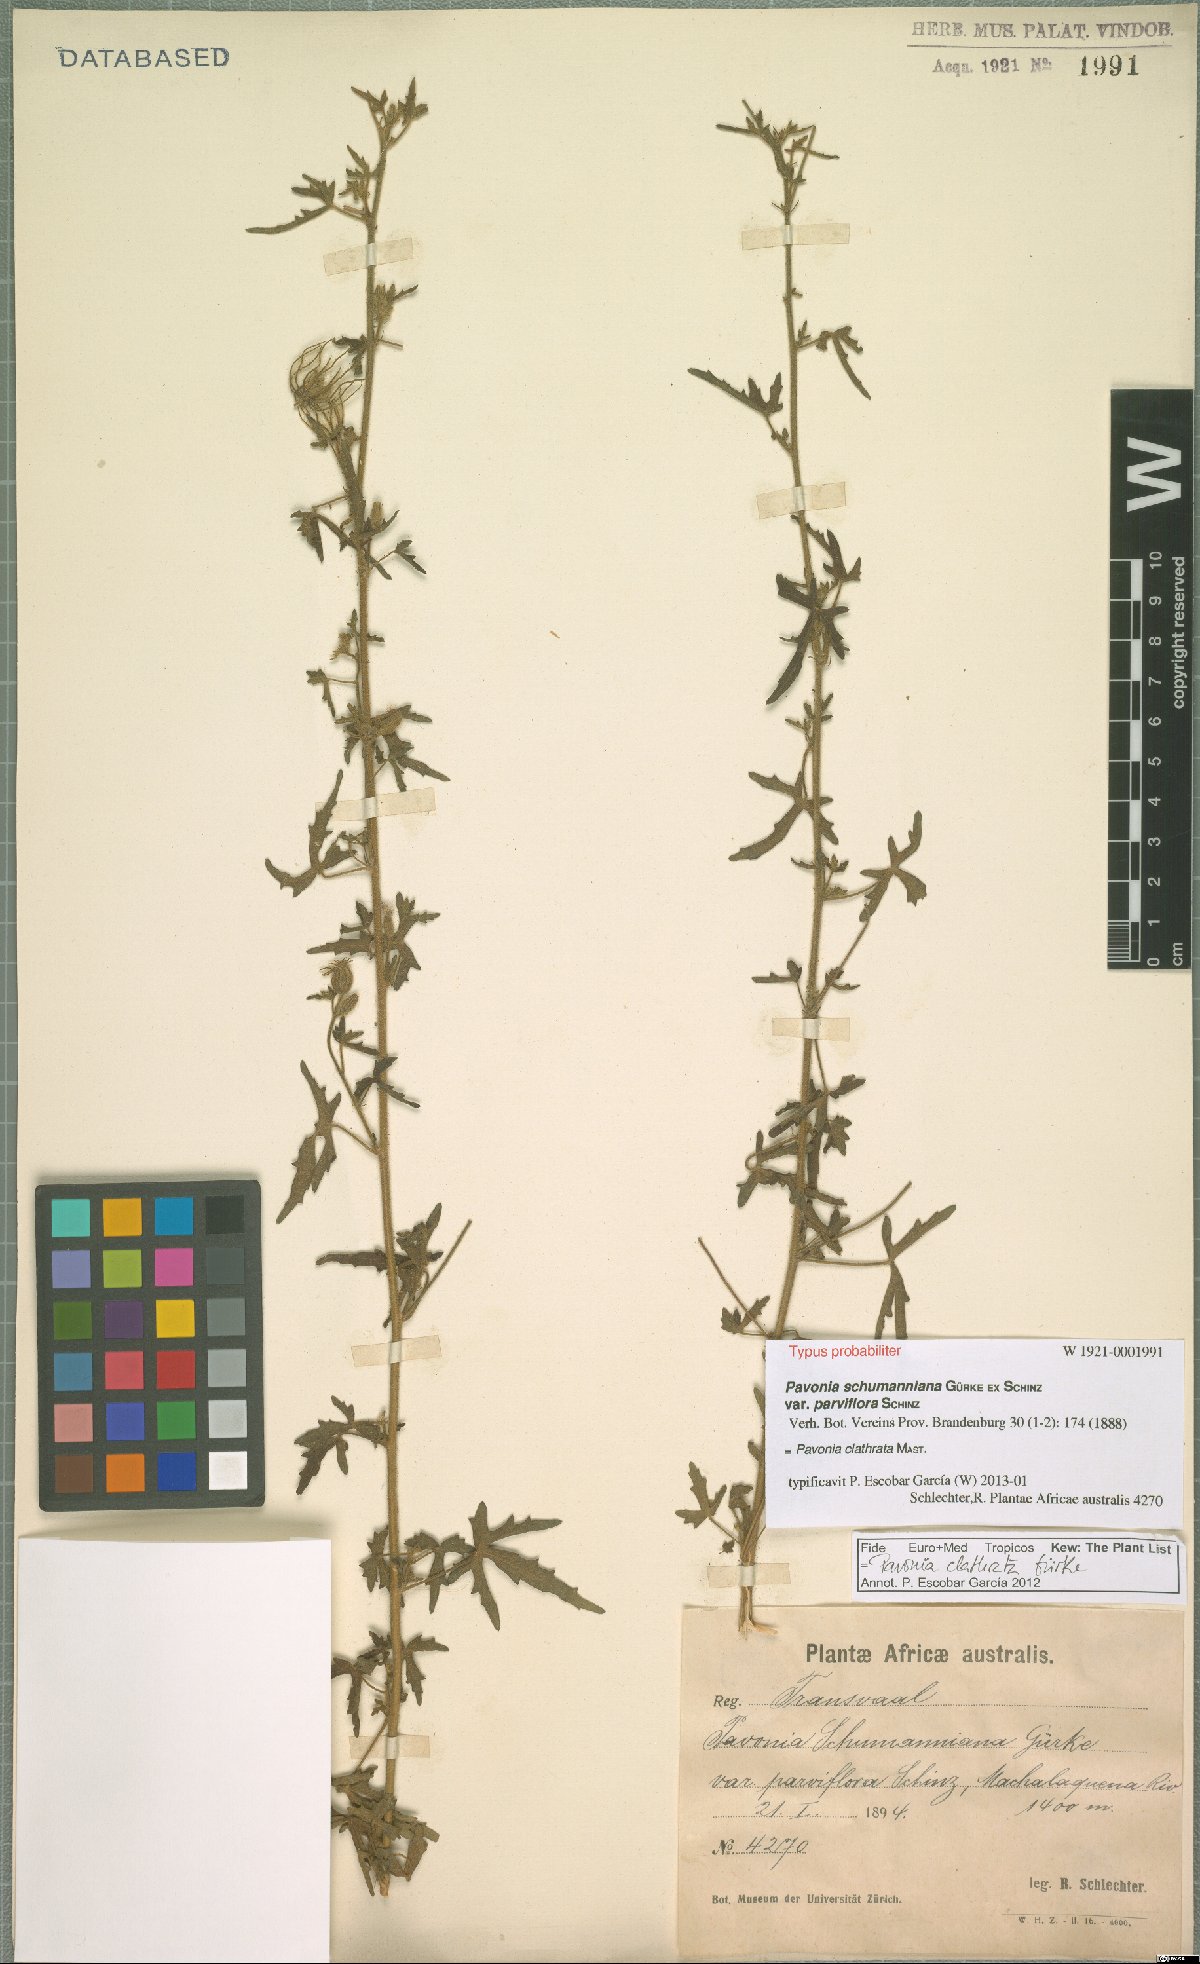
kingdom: Plantae
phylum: Tracheophyta
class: Magnoliopsida
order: Malvales
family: Malvaceae
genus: Pavonia
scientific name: Pavonia clathrata
